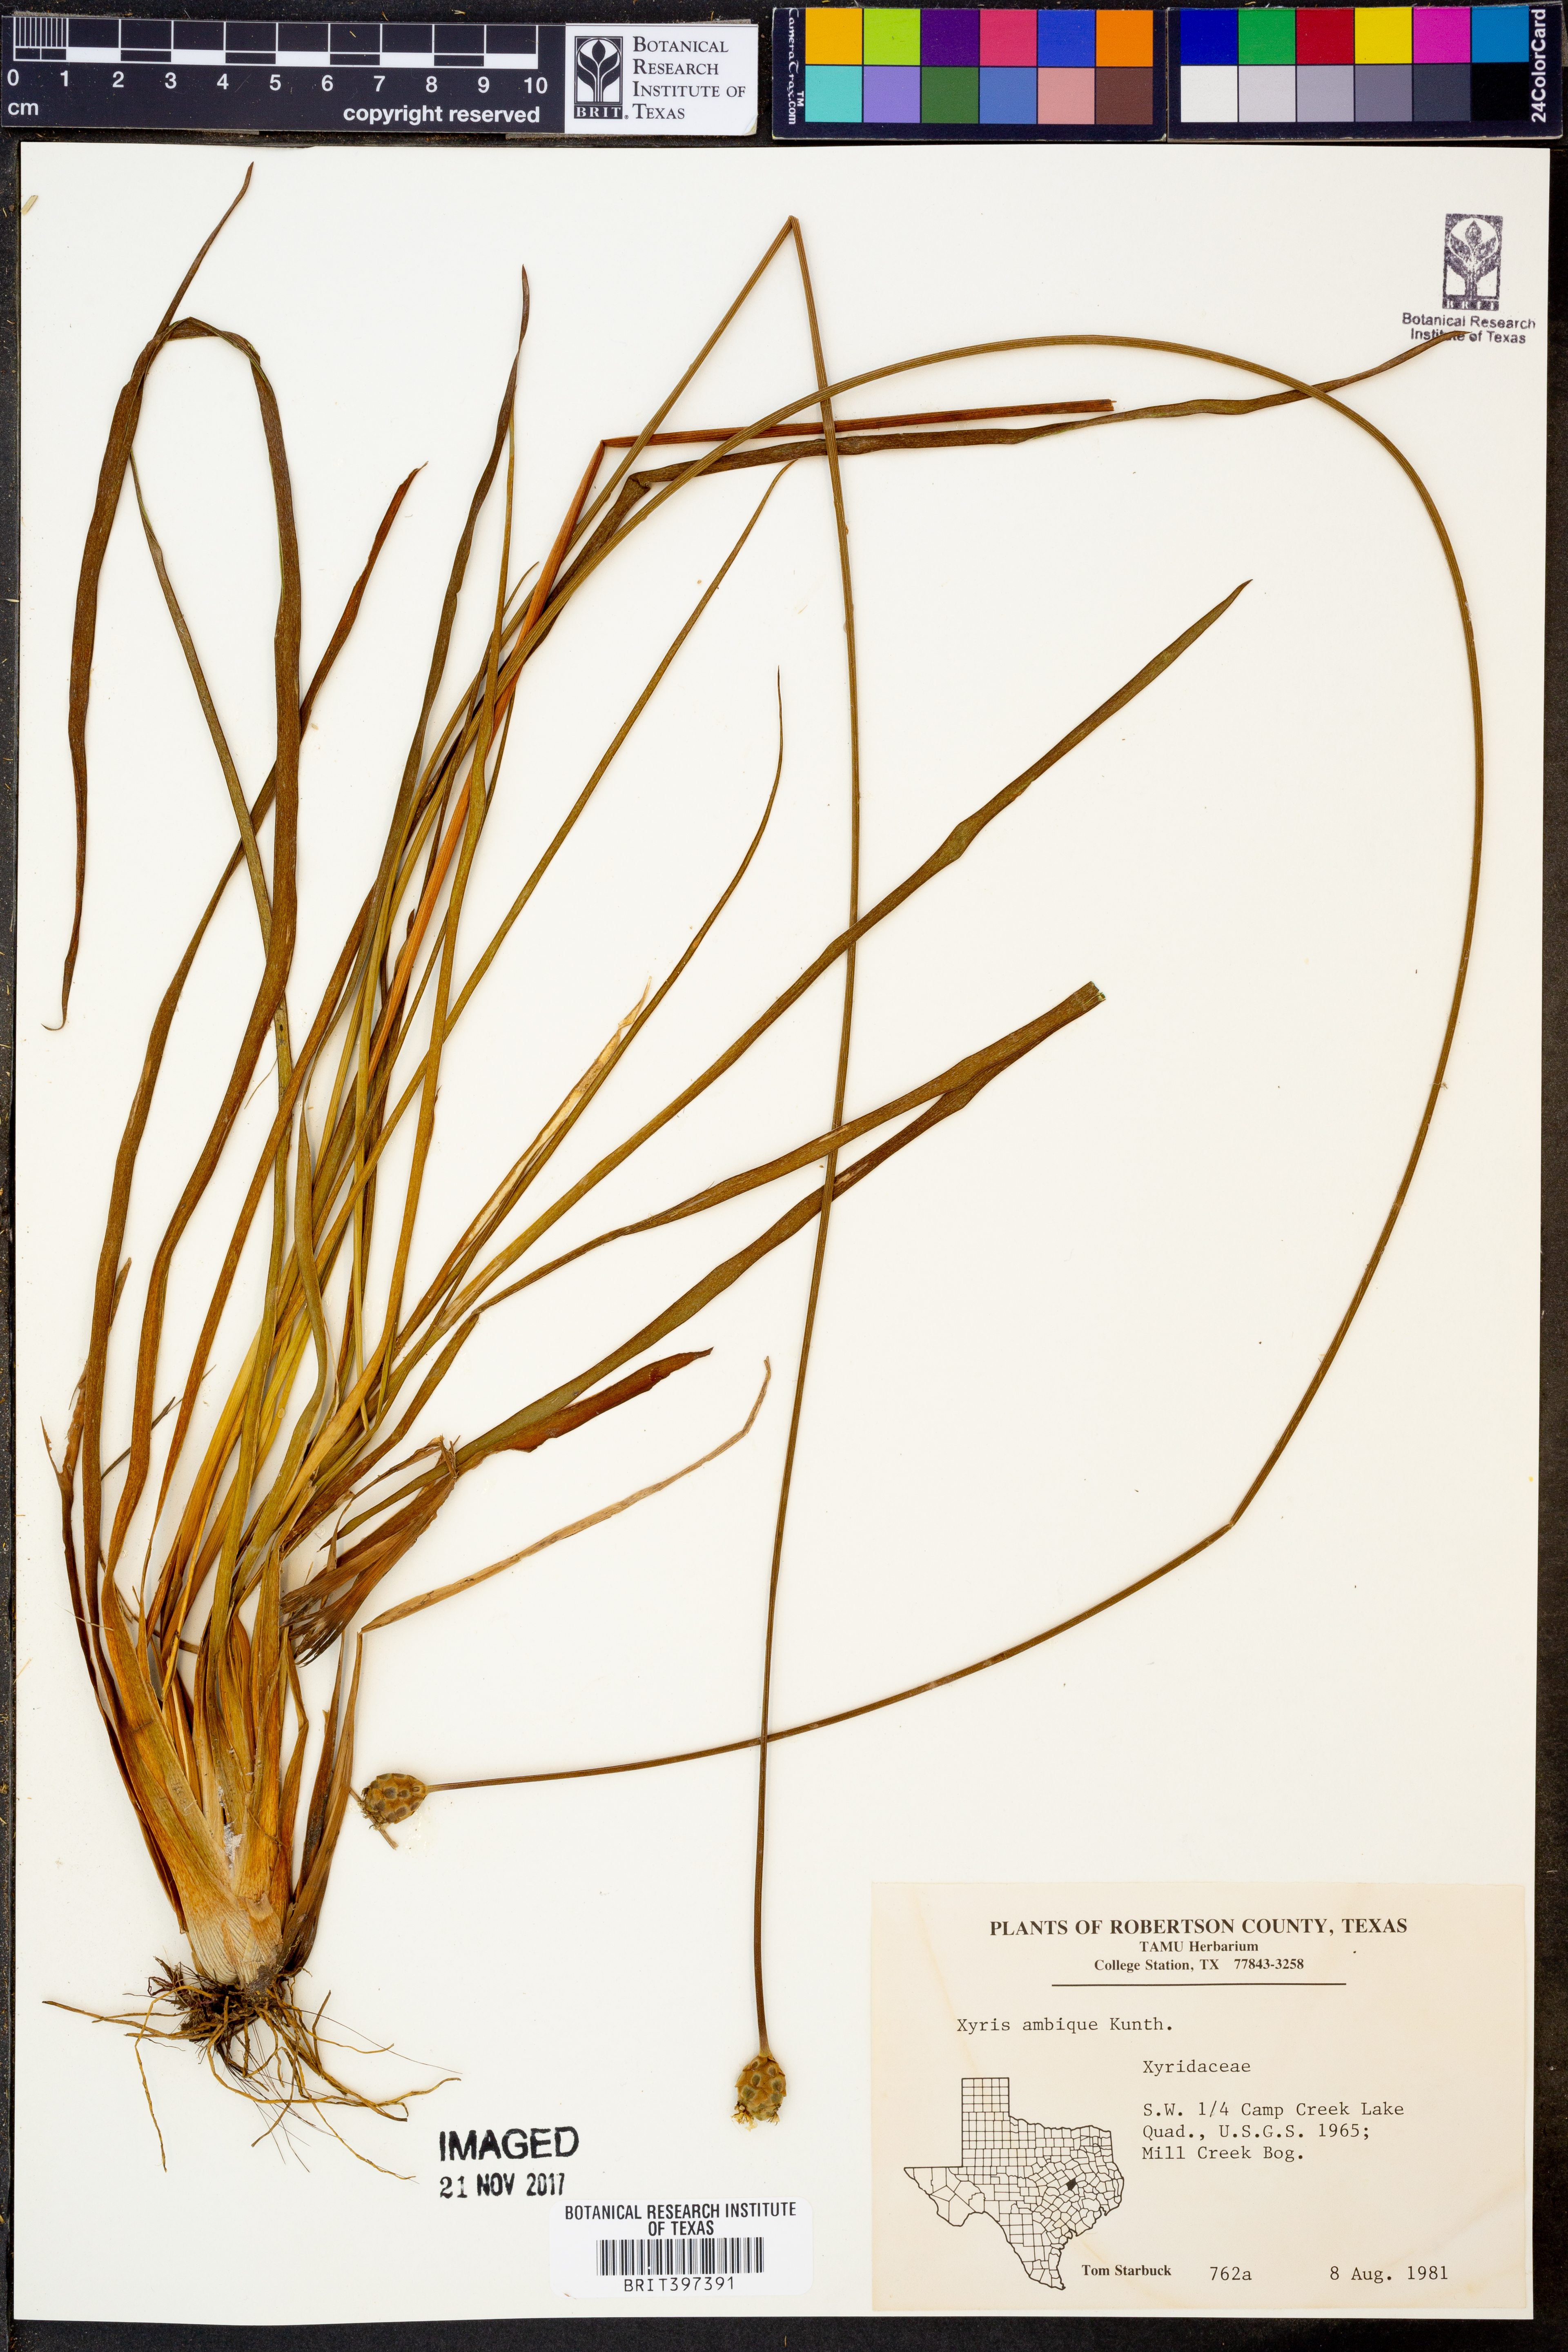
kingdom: Plantae
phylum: Tracheophyta
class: Liliopsida
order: Poales
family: Xyridaceae
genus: Xyris
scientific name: Xyris ambigua
